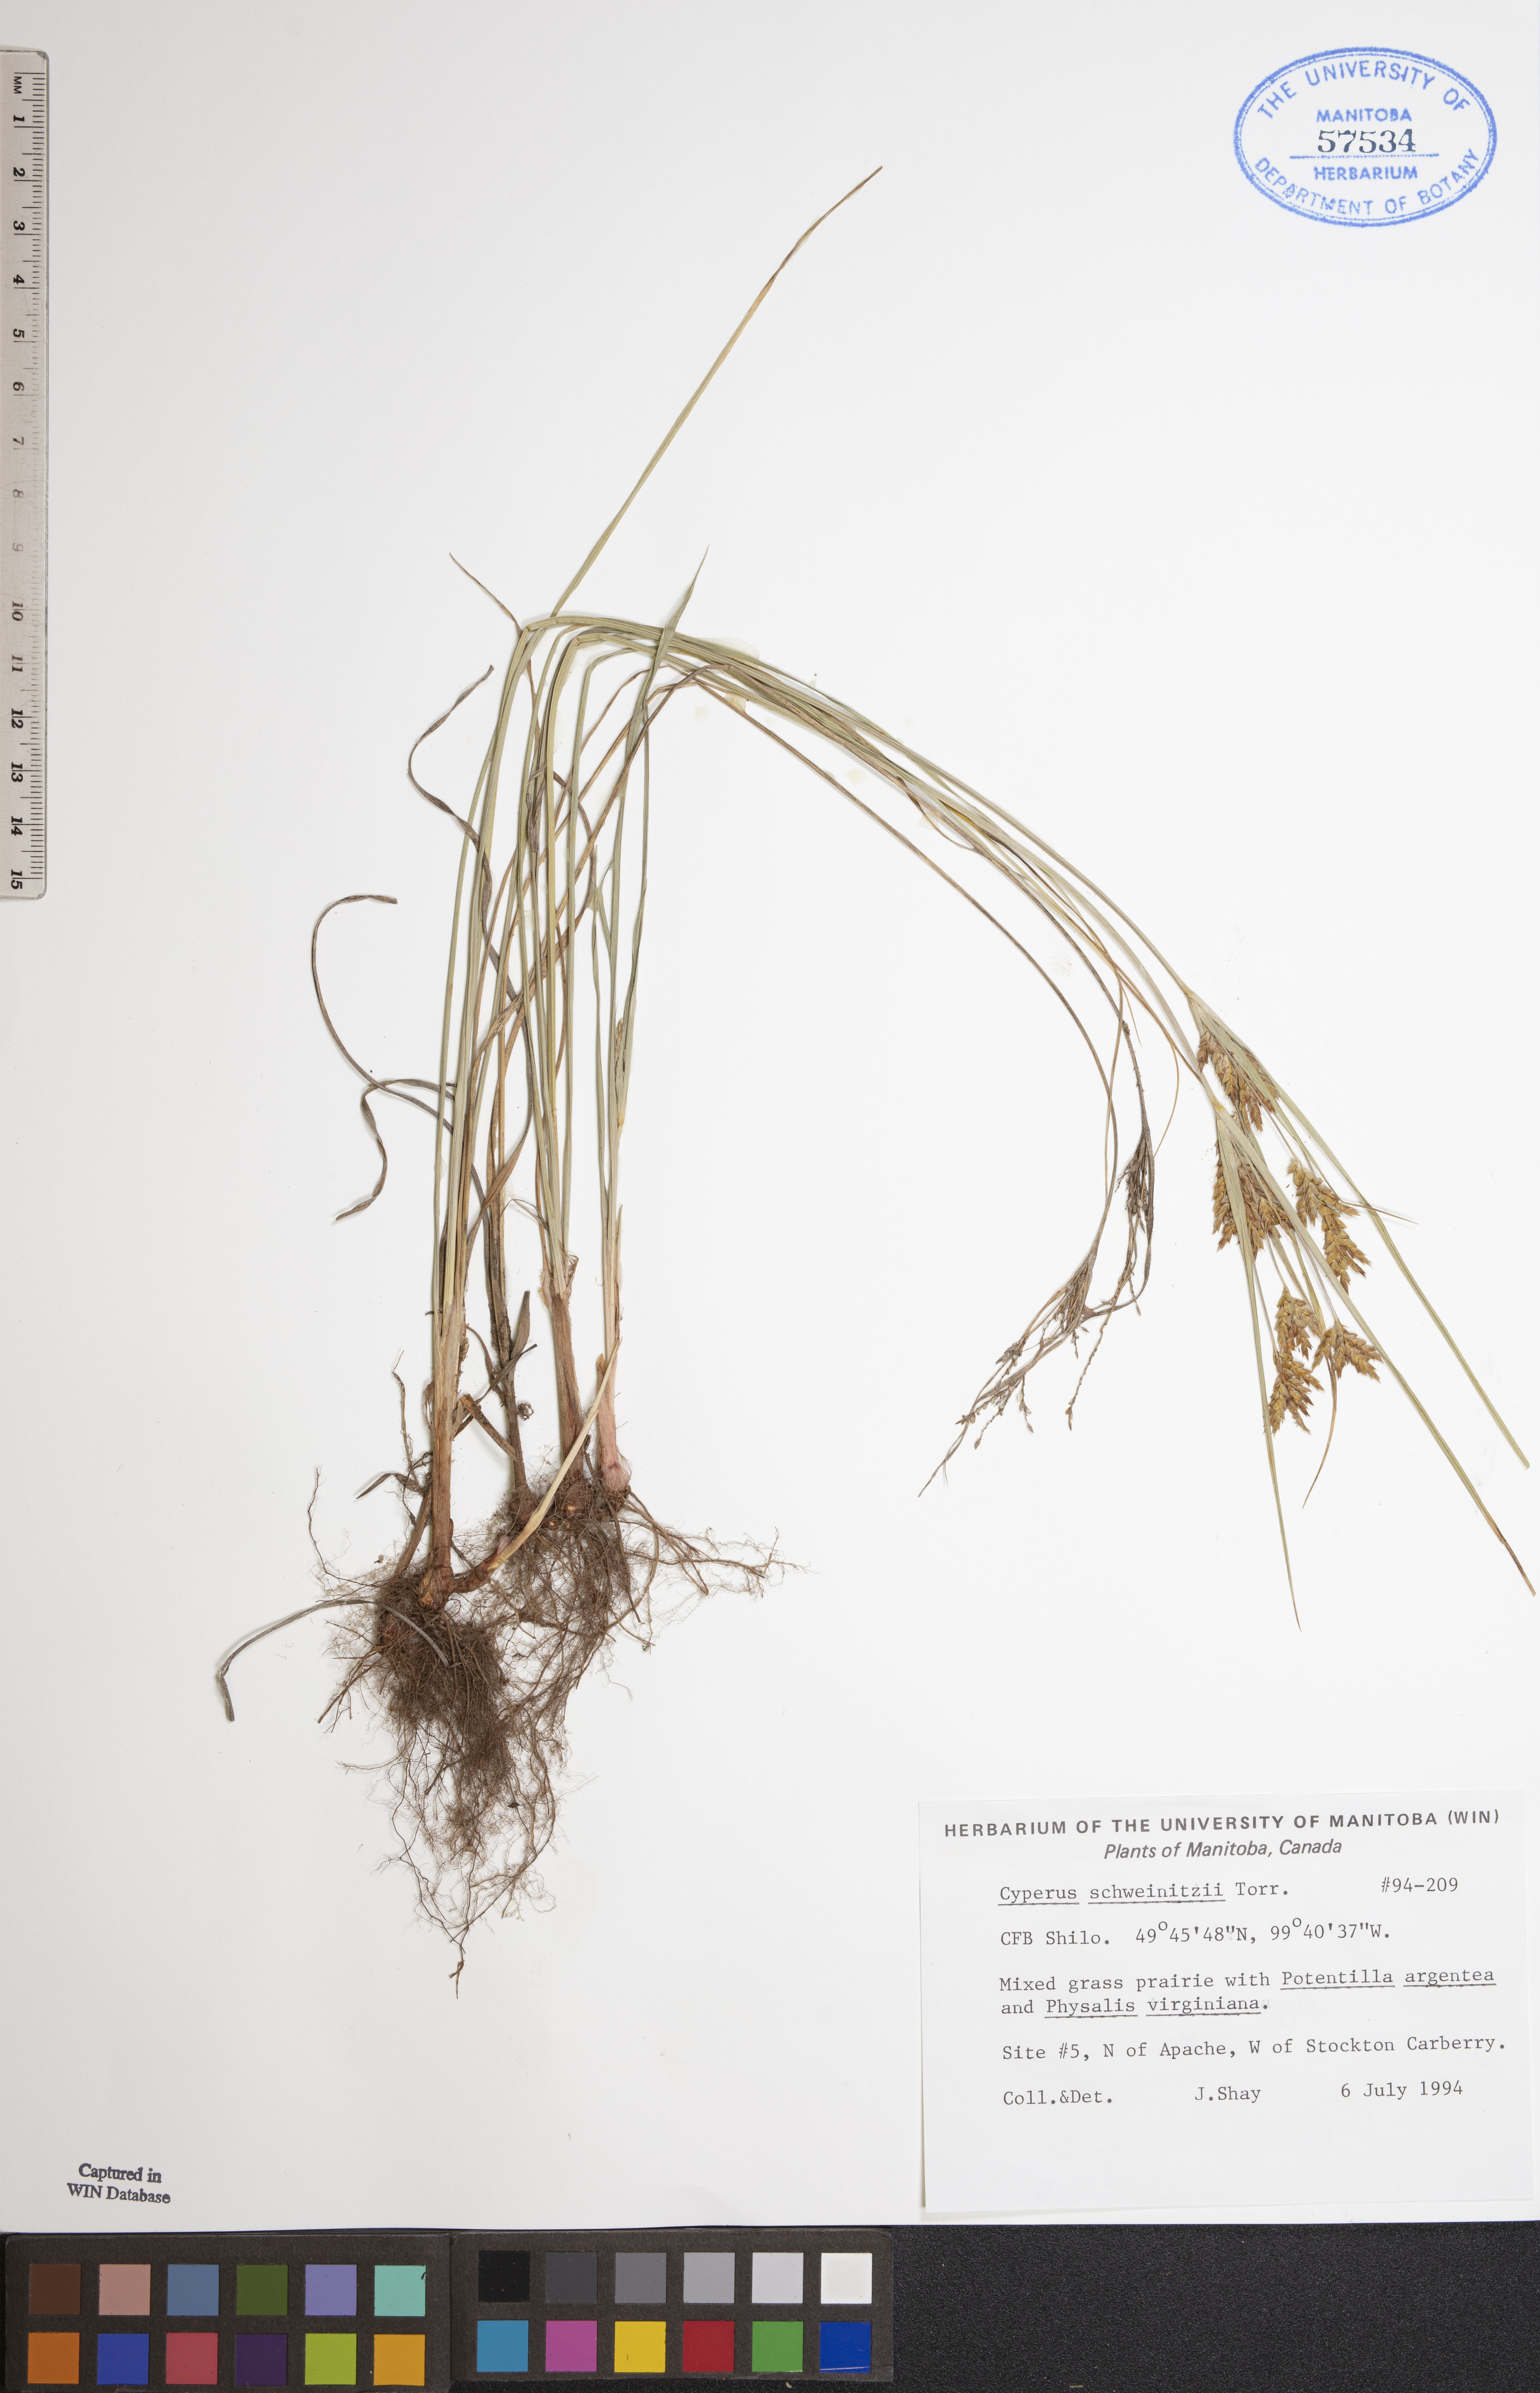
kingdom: Plantae
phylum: Tracheophyta
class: Liliopsida
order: Poales
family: Cyperaceae
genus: Cyperus
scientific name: Cyperus schweinitzii
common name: Schweinitz's cyperus
